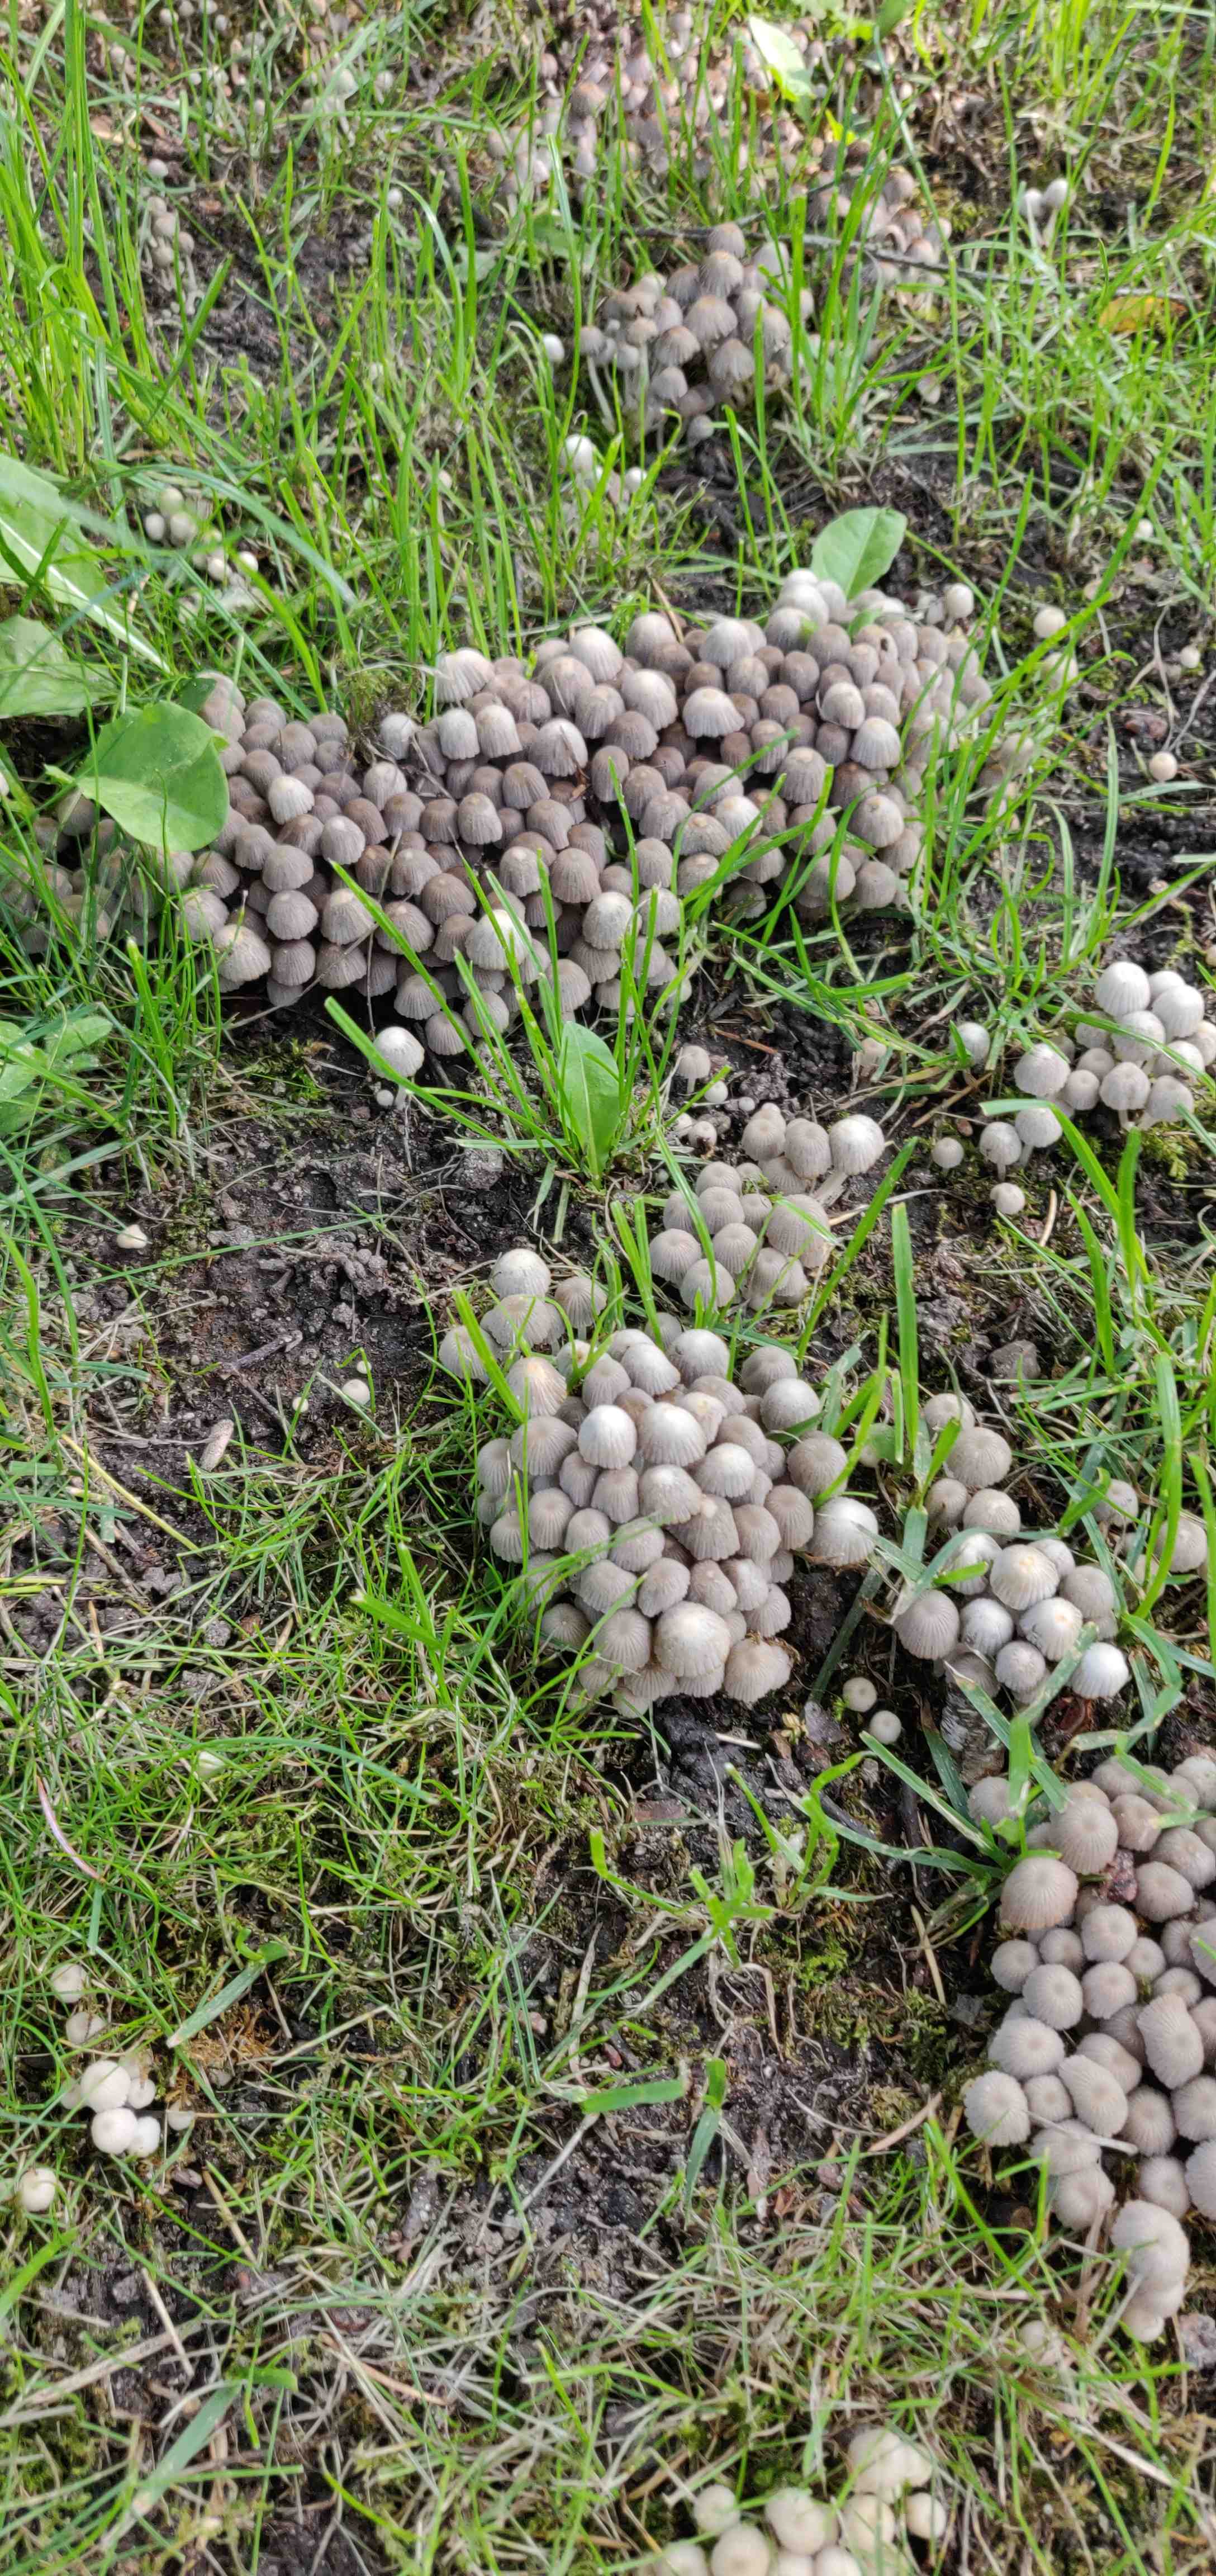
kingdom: Fungi
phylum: Basidiomycota
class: Agaricomycetes
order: Agaricales
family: Psathyrellaceae
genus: Coprinellus
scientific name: Coprinellus disseminatus
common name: bredsået blækhat
